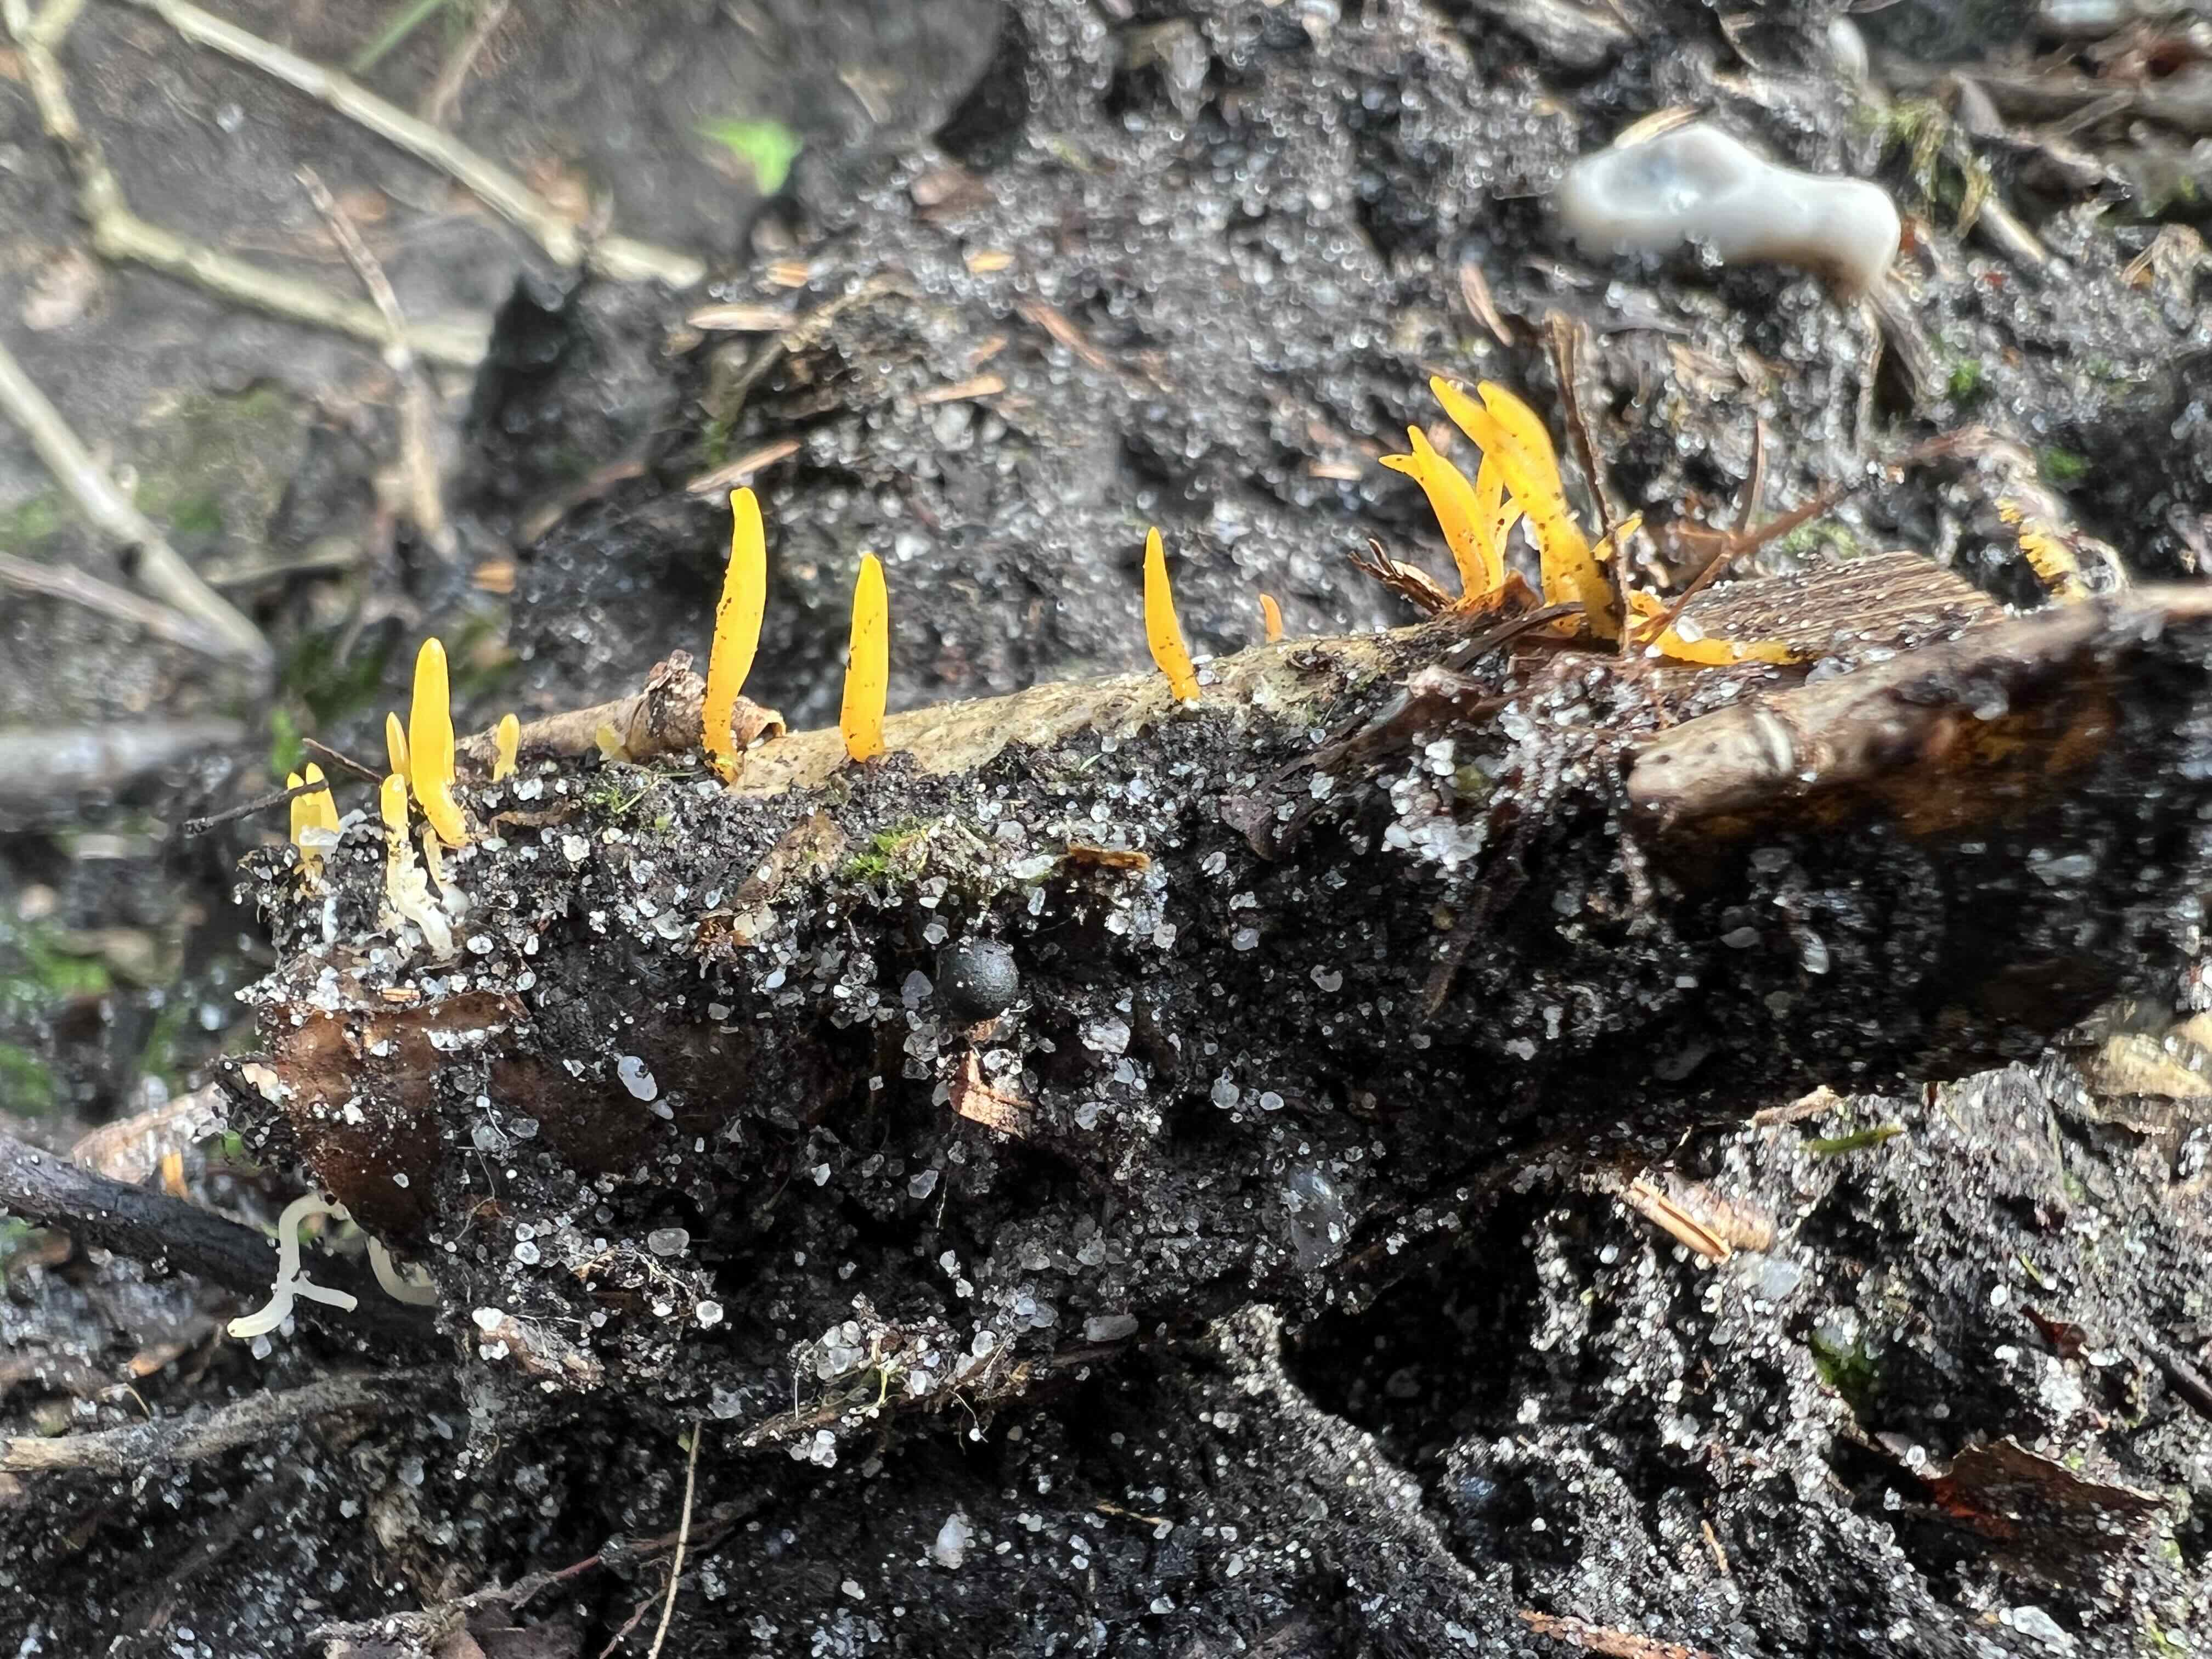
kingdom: Fungi
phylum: Basidiomycota
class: Dacrymycetes
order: Dacrymycetales
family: Dacrymycetaceae
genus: Calocera
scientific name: Calocera cornea
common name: liden guldgaffel
